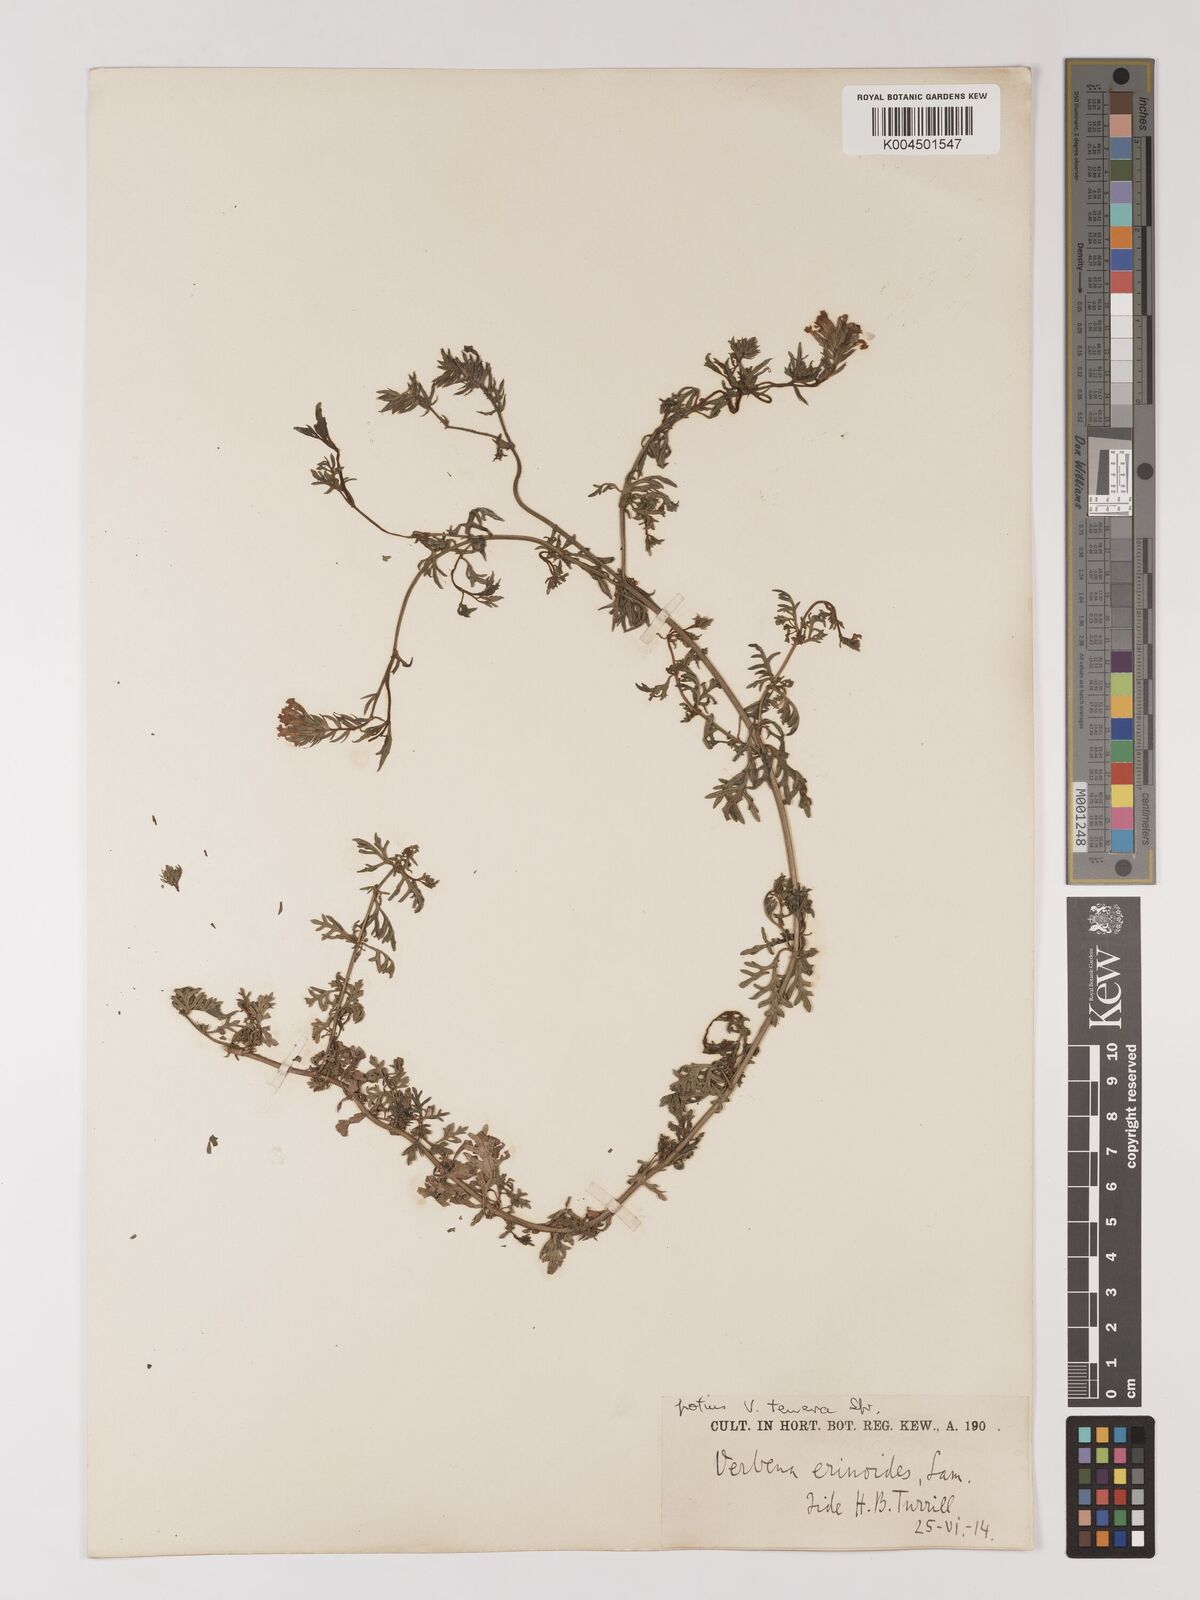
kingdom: Plantae
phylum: Tracheophyta
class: Magnoliopsida
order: Lamiales
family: Verbenaceae
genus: Verbena
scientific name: Verbena tenera
